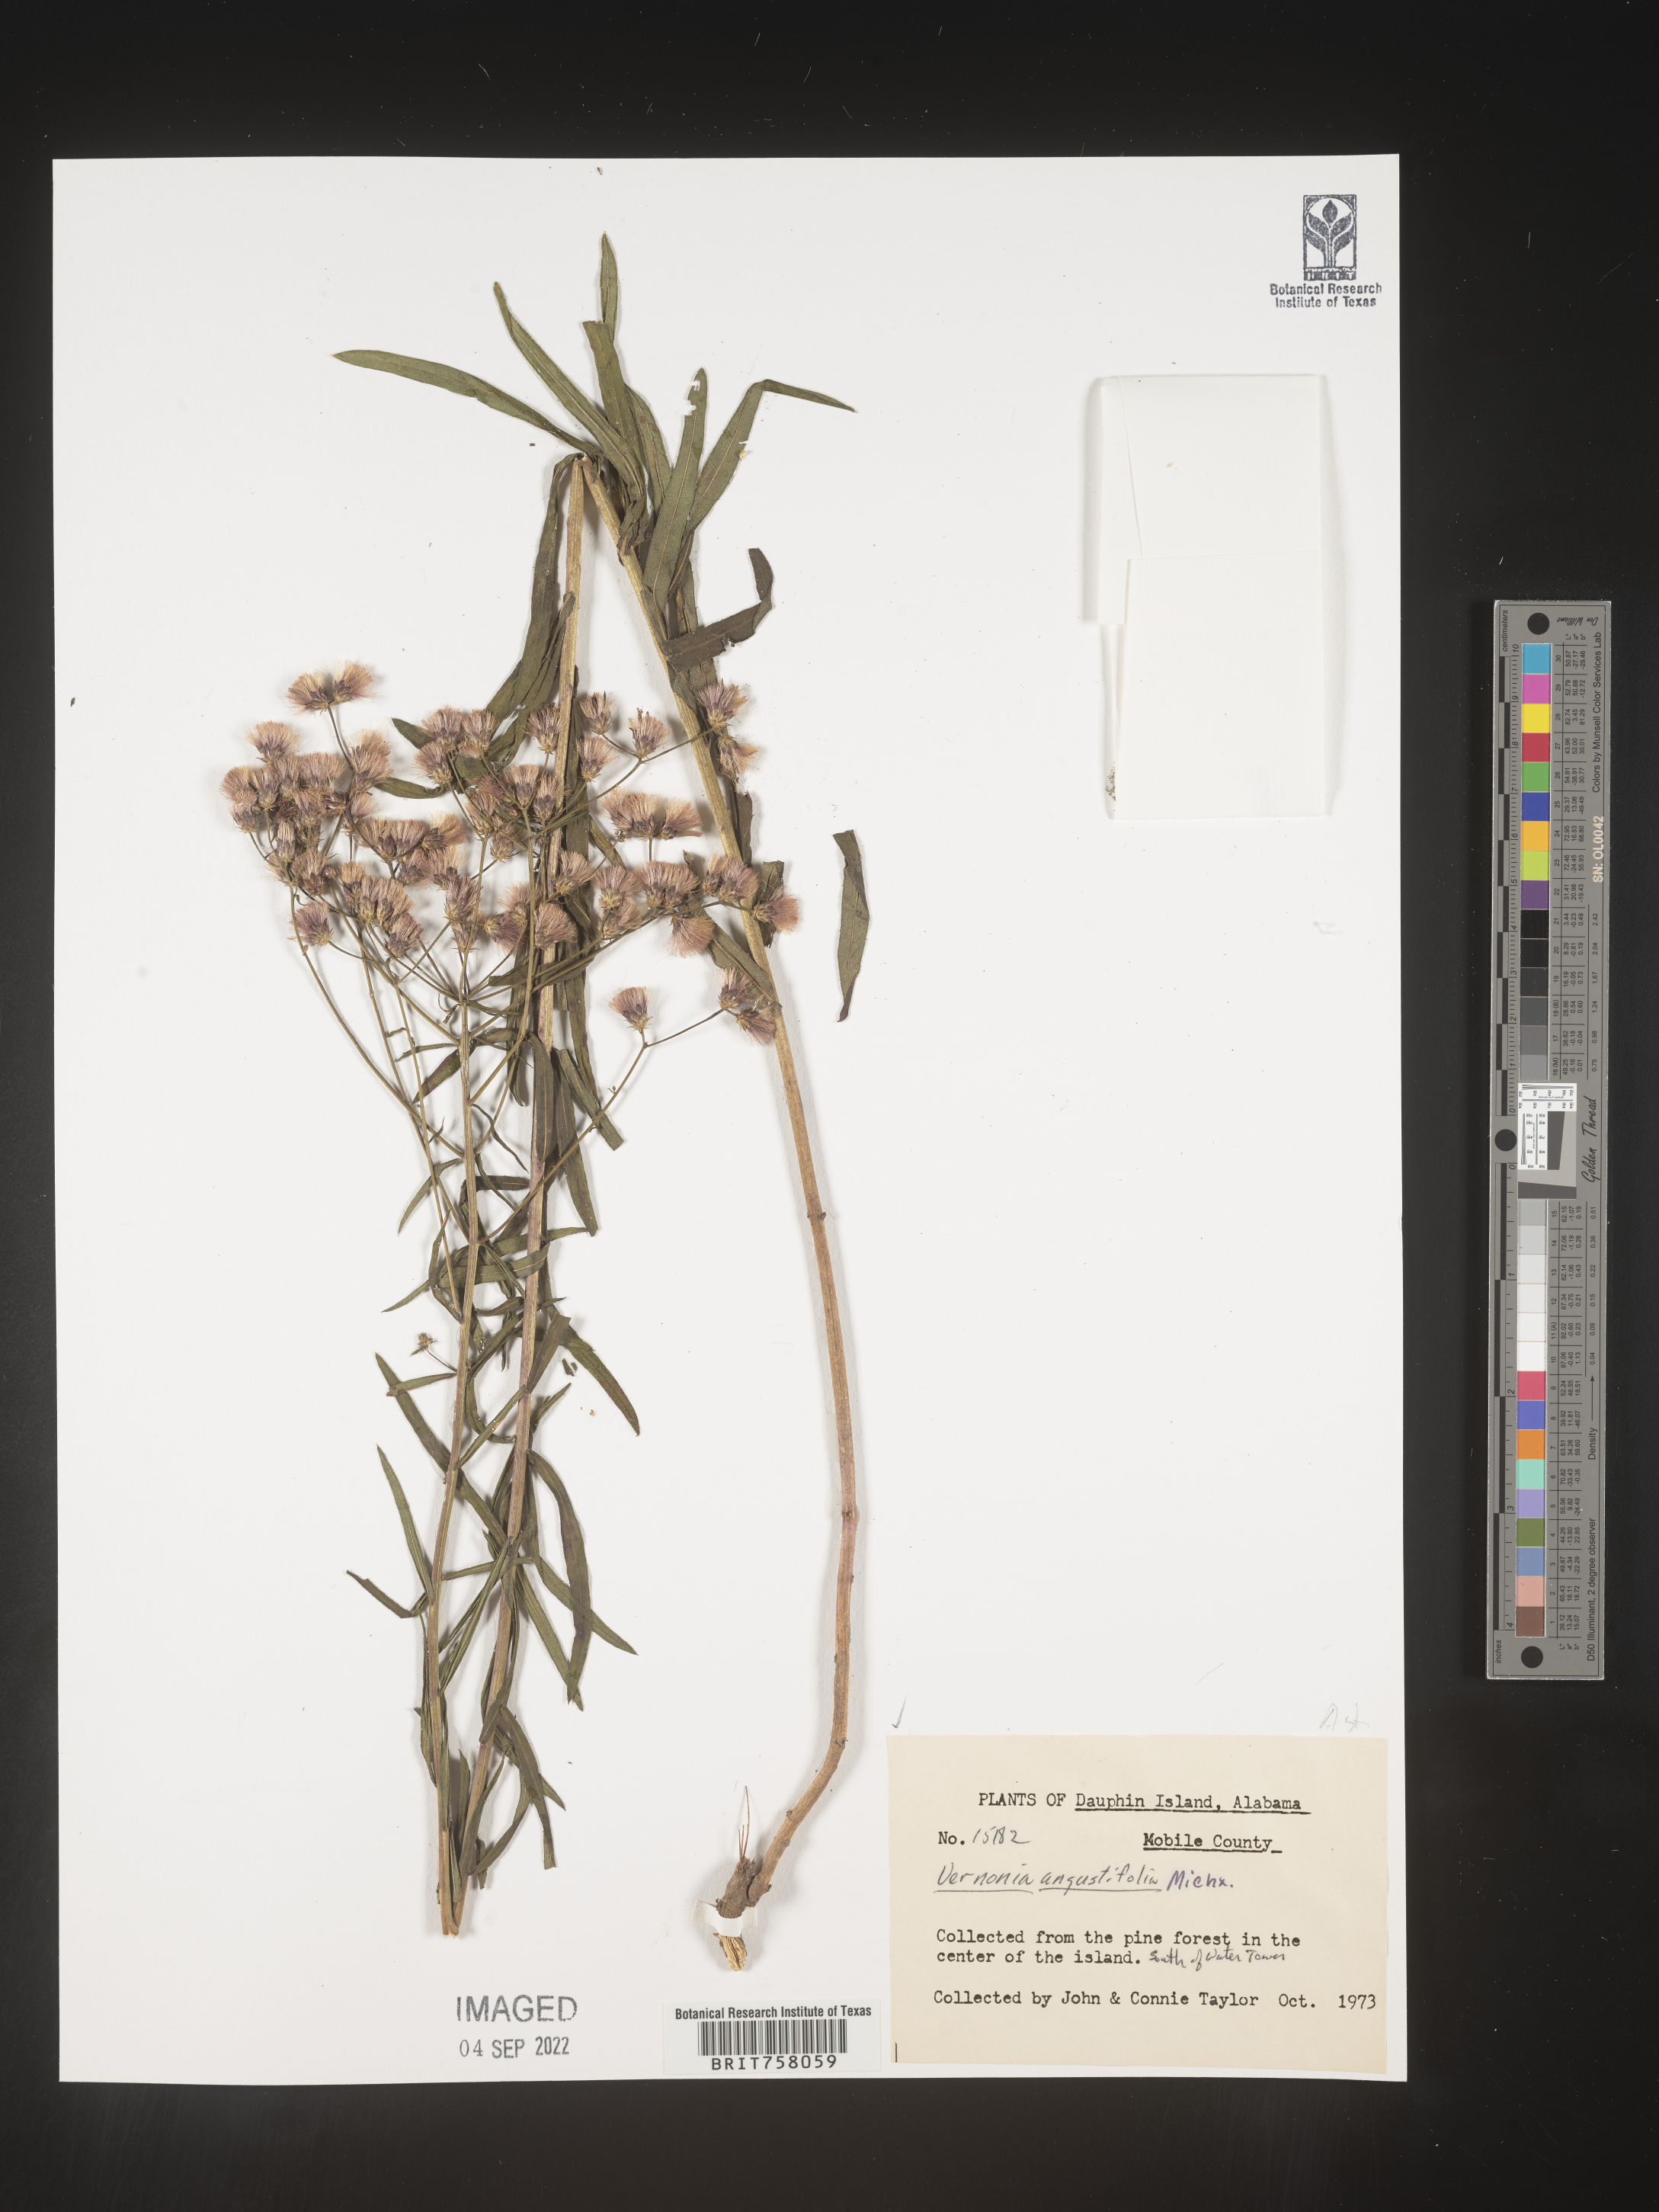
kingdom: Plantae
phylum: Tracheophyta
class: Magnoliopsida
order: Asterales
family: Asteraceae
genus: Vernonia
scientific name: Vernonia angustifolia
